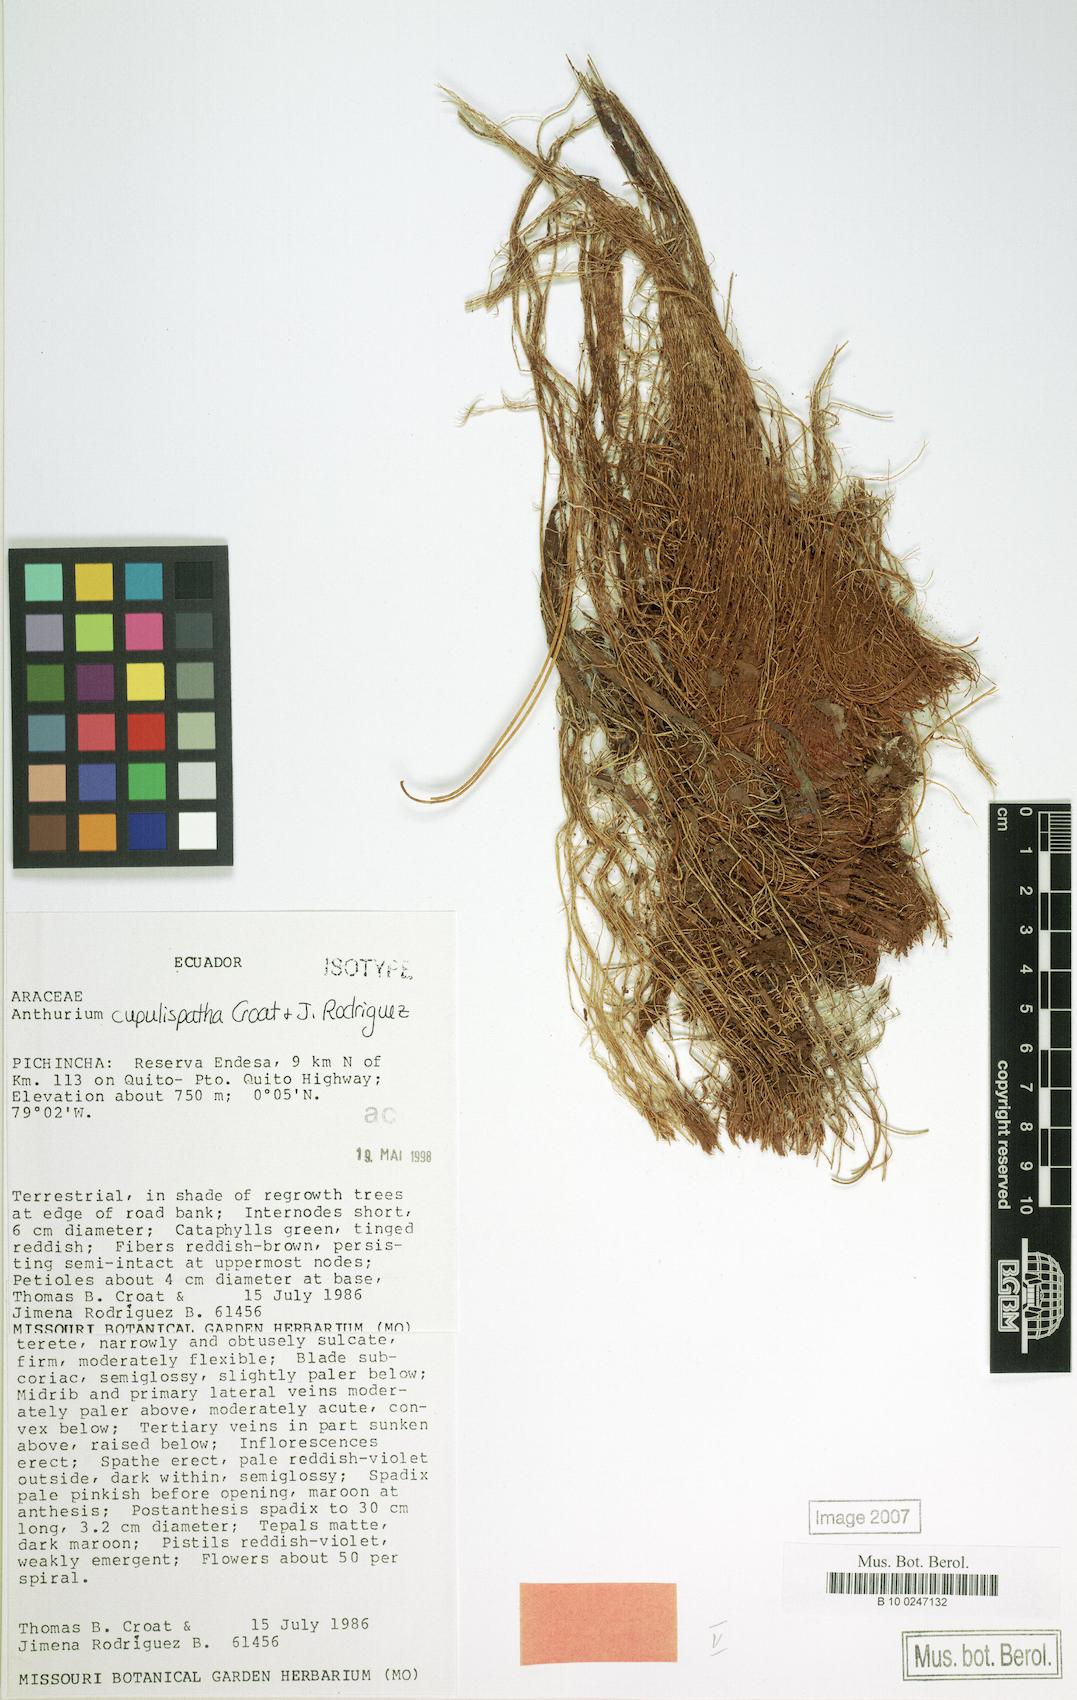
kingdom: Plantae
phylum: Tracheophyta
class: Liliopsida
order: Alismatales
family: Araceae
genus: Anthurium
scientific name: Anthurium cupulispathum
